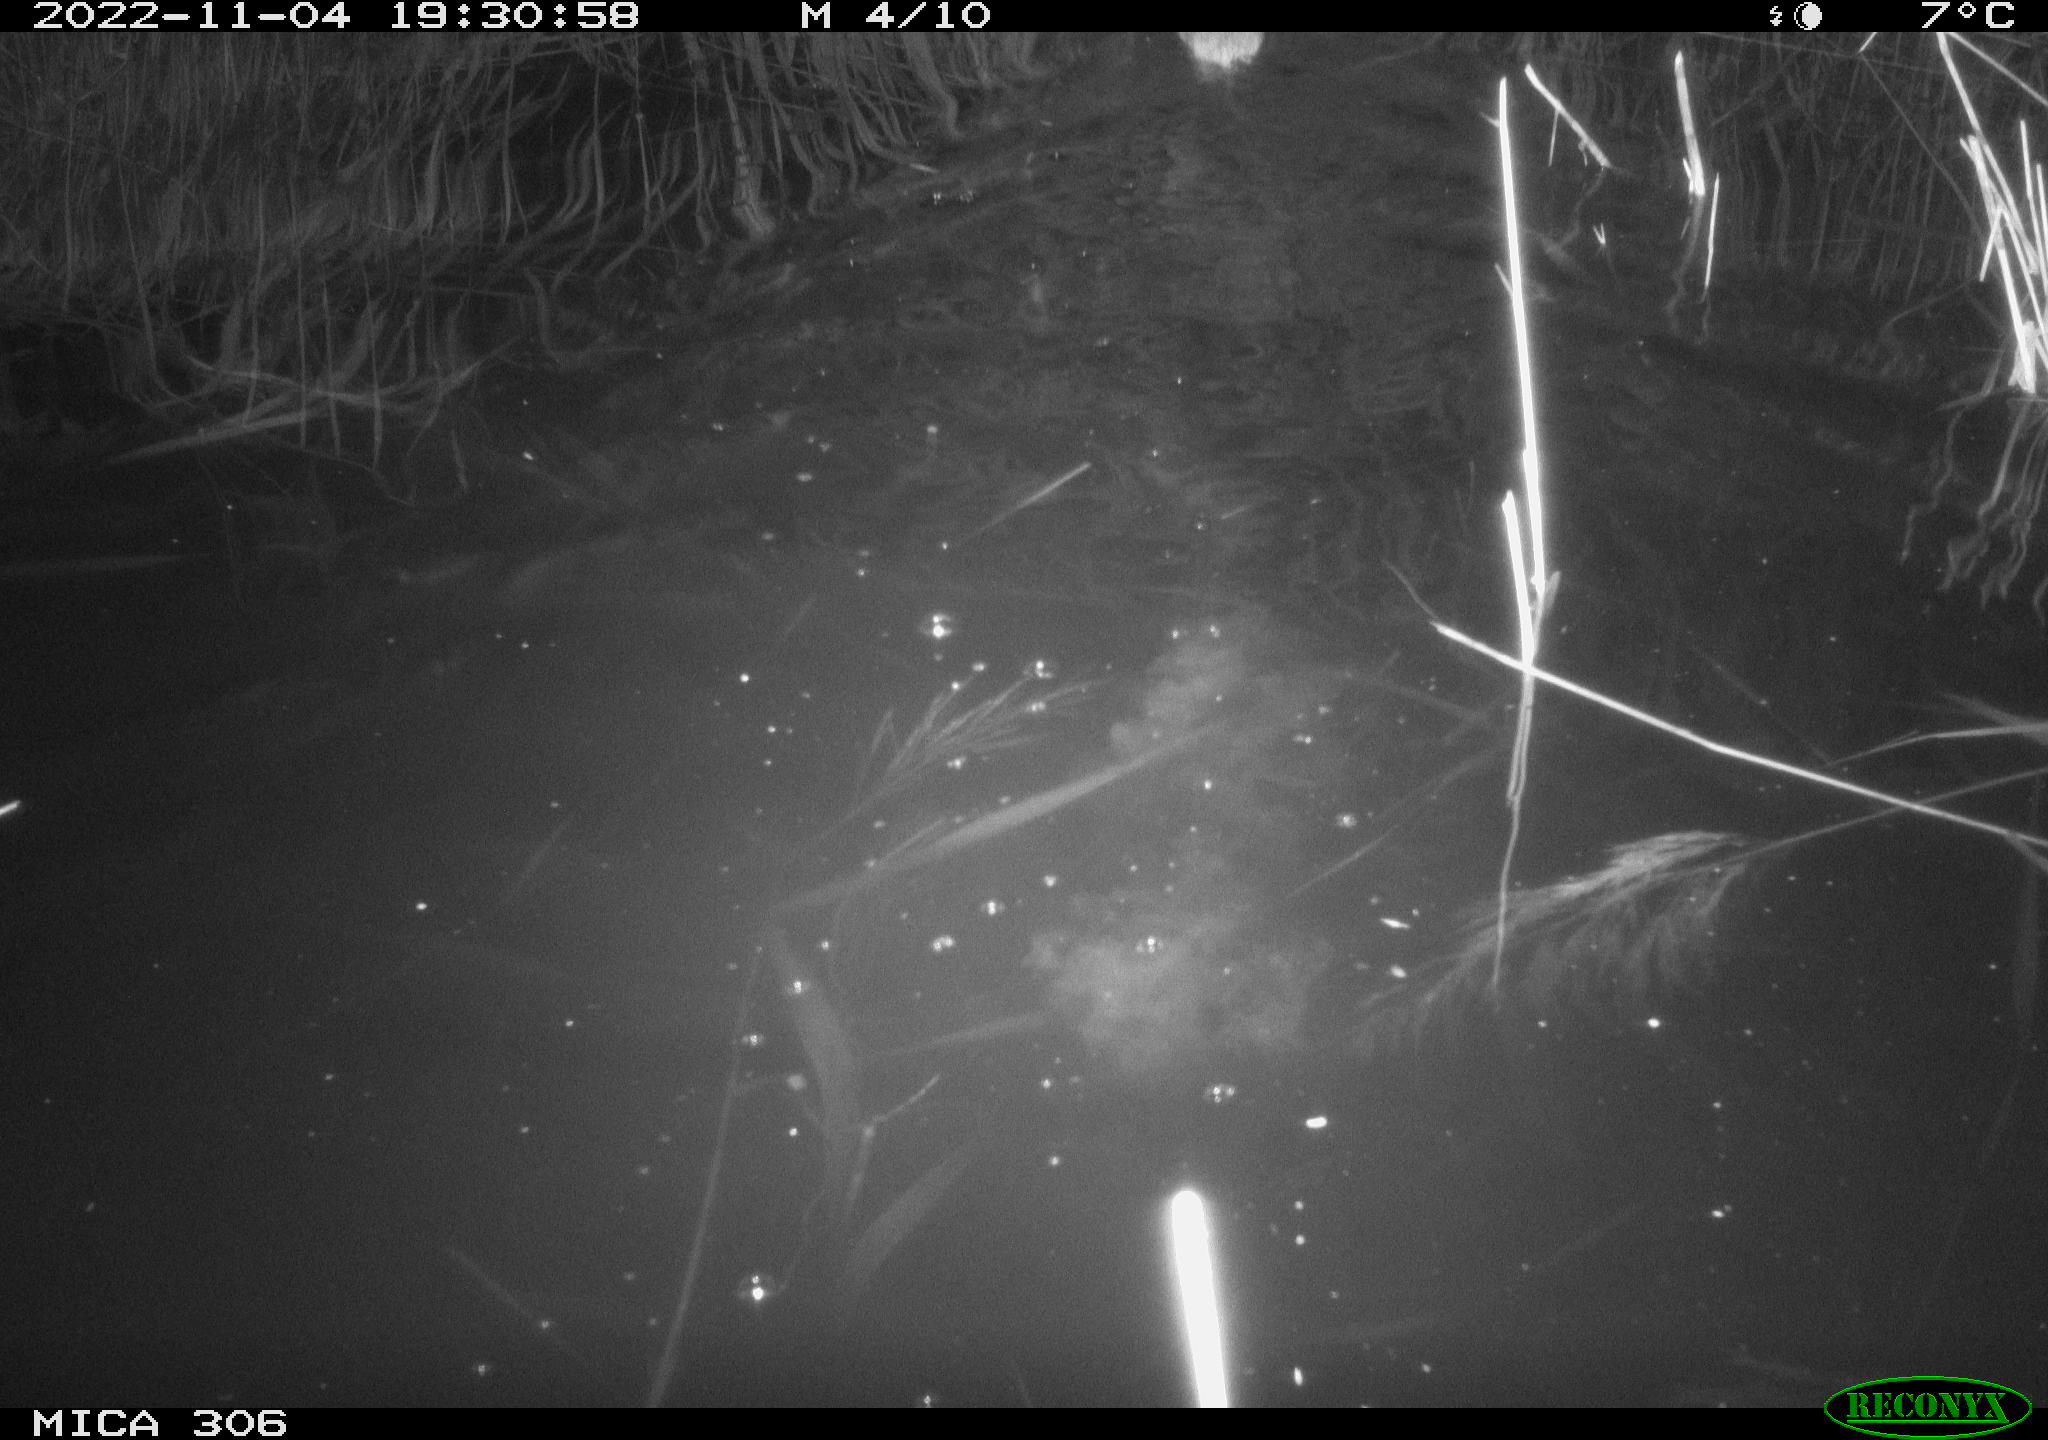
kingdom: Animalia
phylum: Chordata
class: Mammalia
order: Rodentia
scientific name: Rodentia
